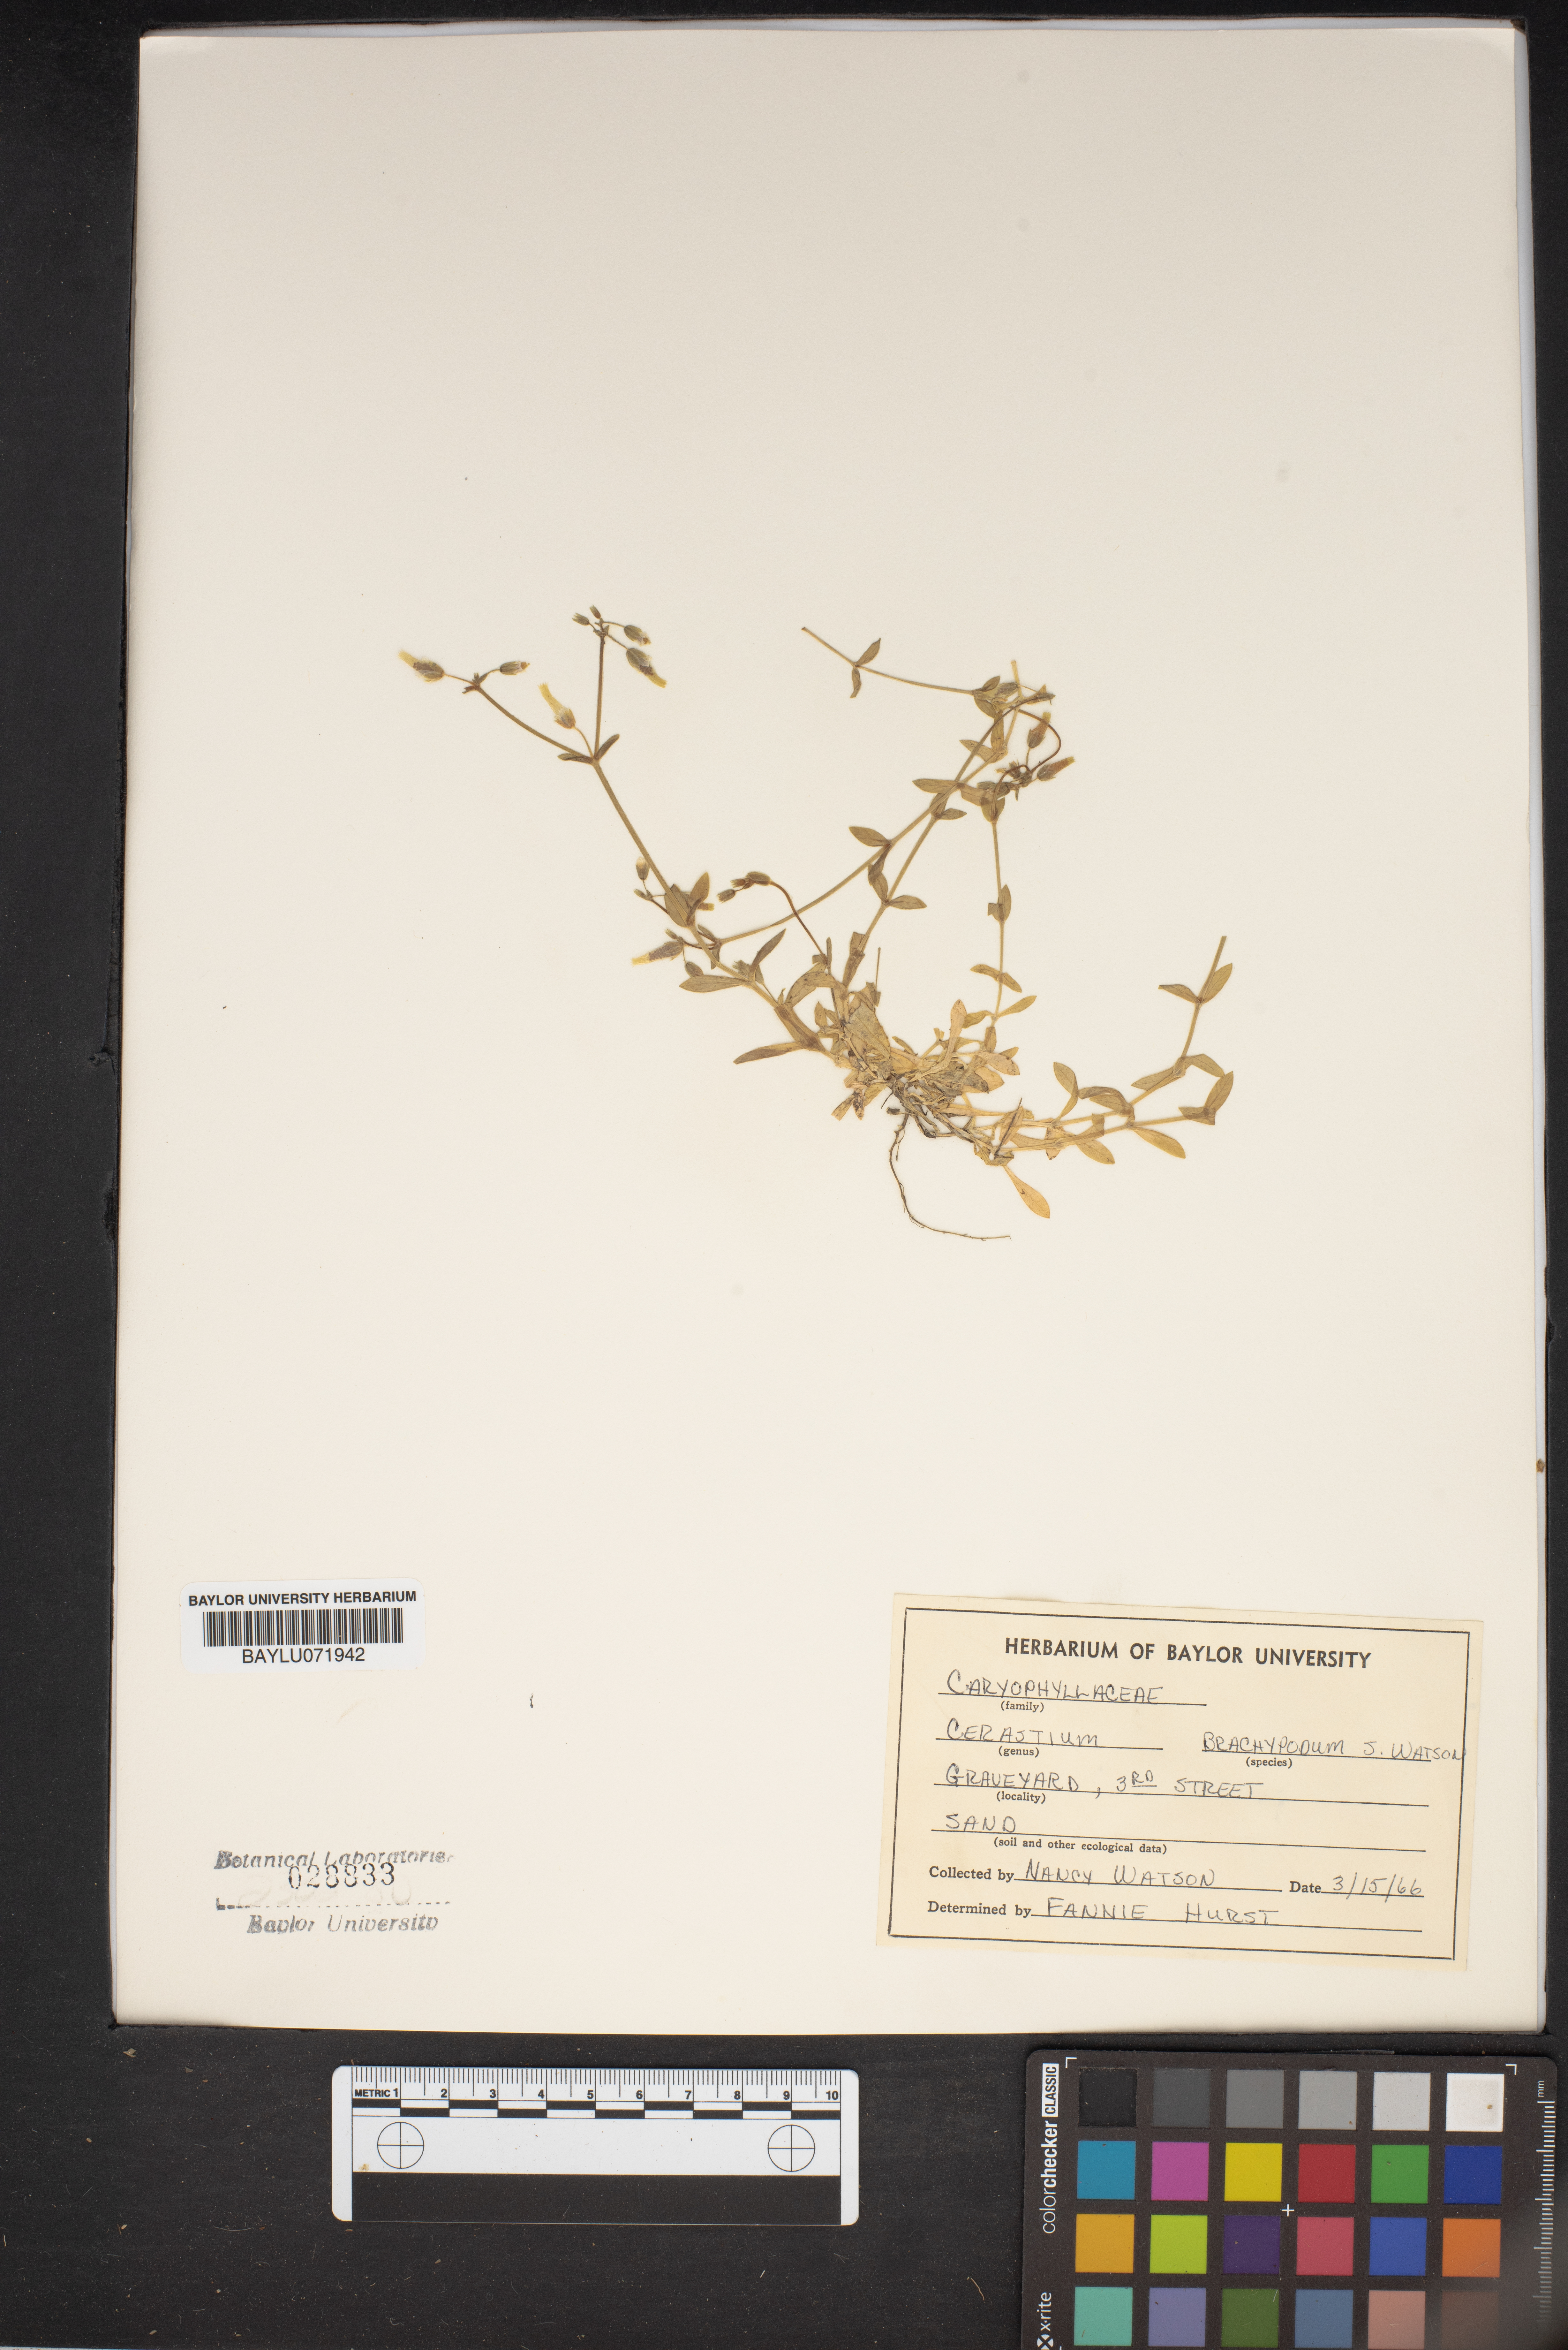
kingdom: Plantae
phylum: Tracheophyta
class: Magnoliopsida
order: Caryophyllales
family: Caryophyllaceae
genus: Cerastium
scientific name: Cerastium brachypodum
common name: Short-pedicelled nodding chickweed
